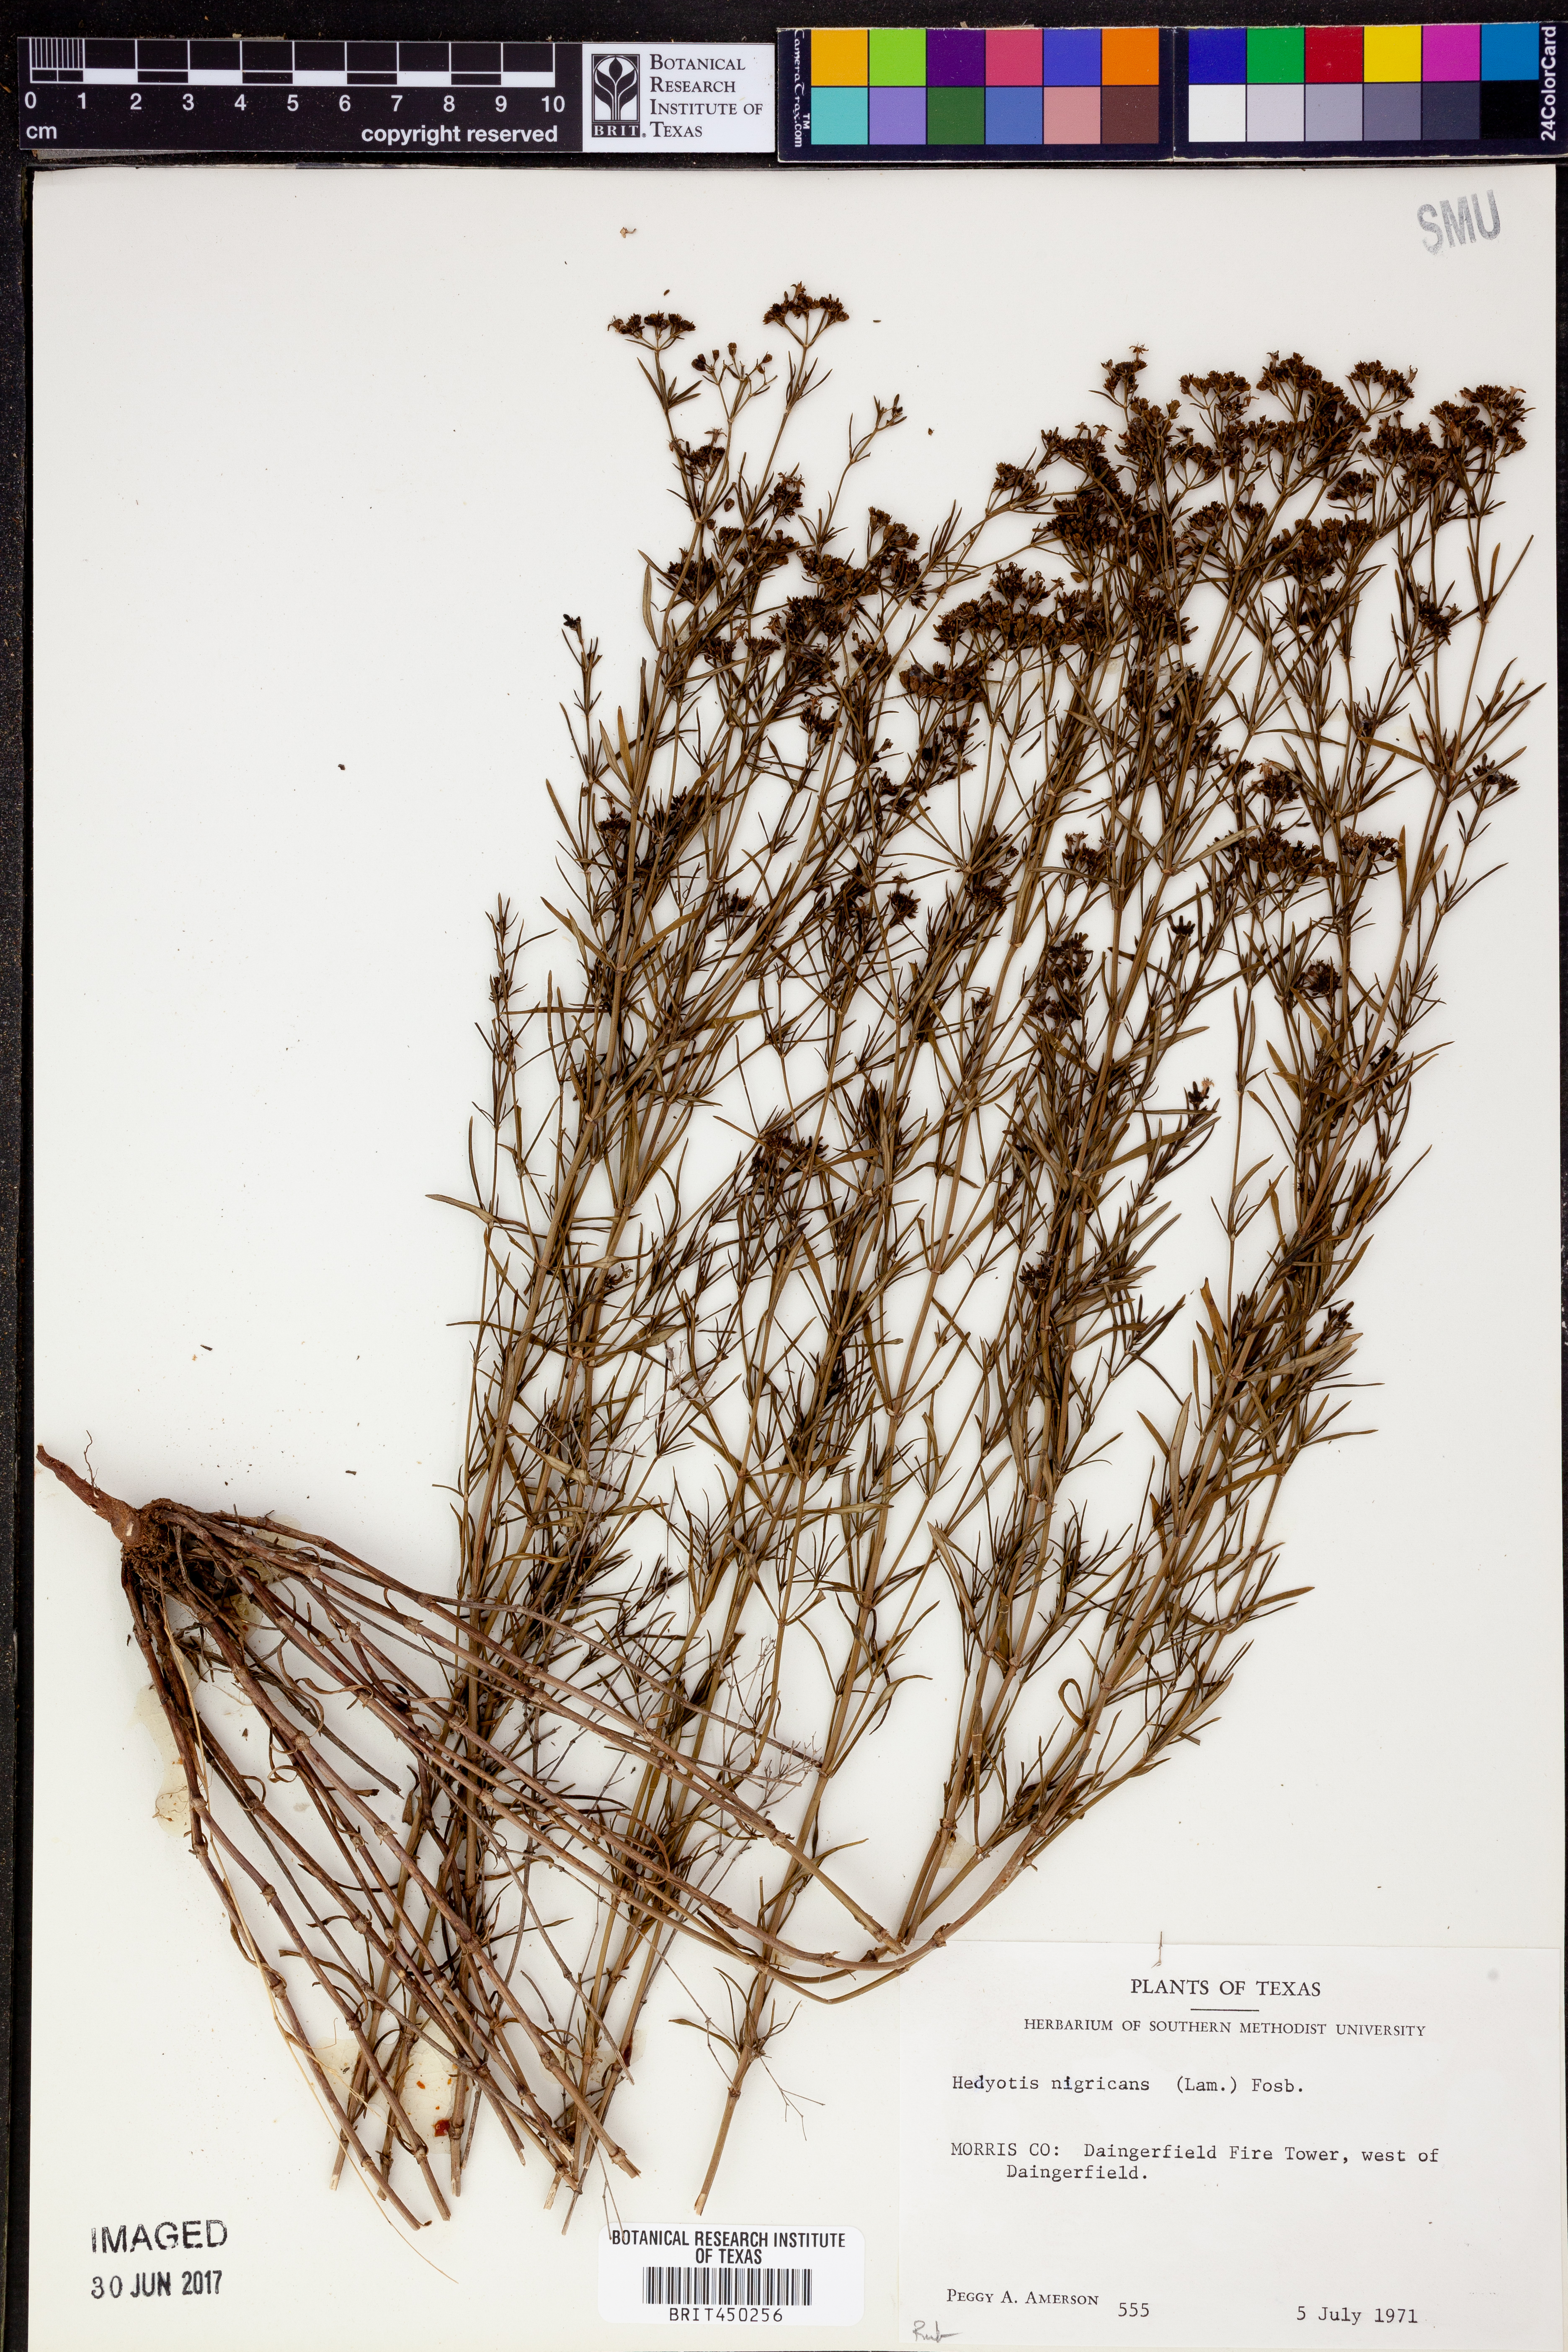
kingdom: Plantae
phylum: Tracheophyta
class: Magnoliopsida
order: Gentianales
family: Rubiaceae
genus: Stenaria
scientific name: Stenaria nigricans
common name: Diamondflowers
